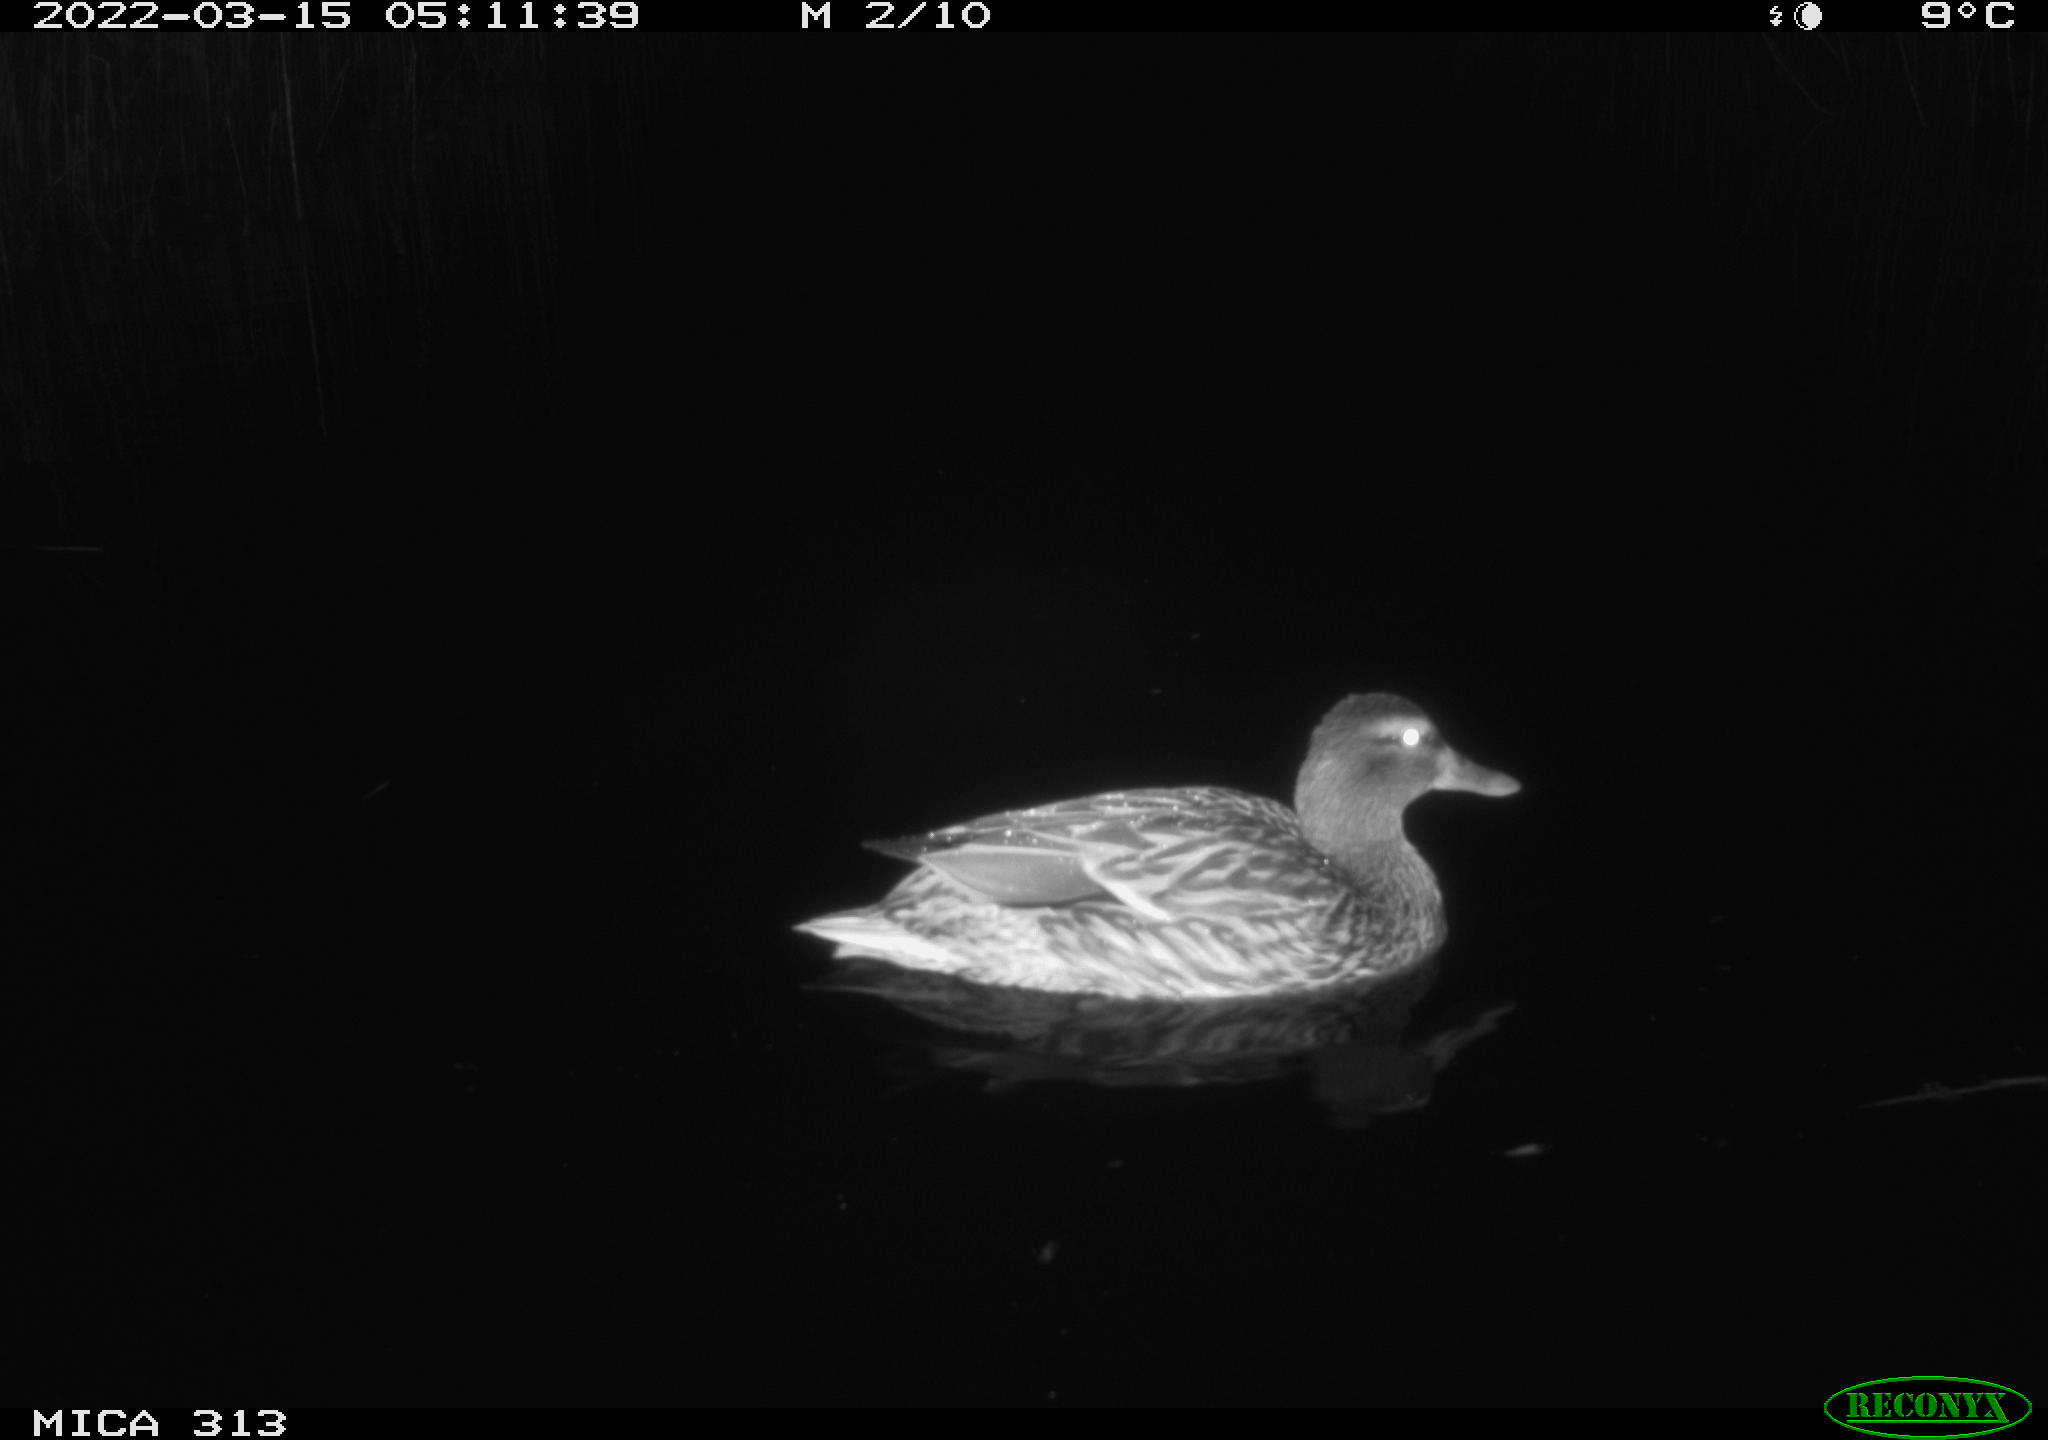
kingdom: Animalia
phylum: Chordata
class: Aves
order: Anseriformes
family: Anatidae
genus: Anas
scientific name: Anas platyrhynchos
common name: Mallard
